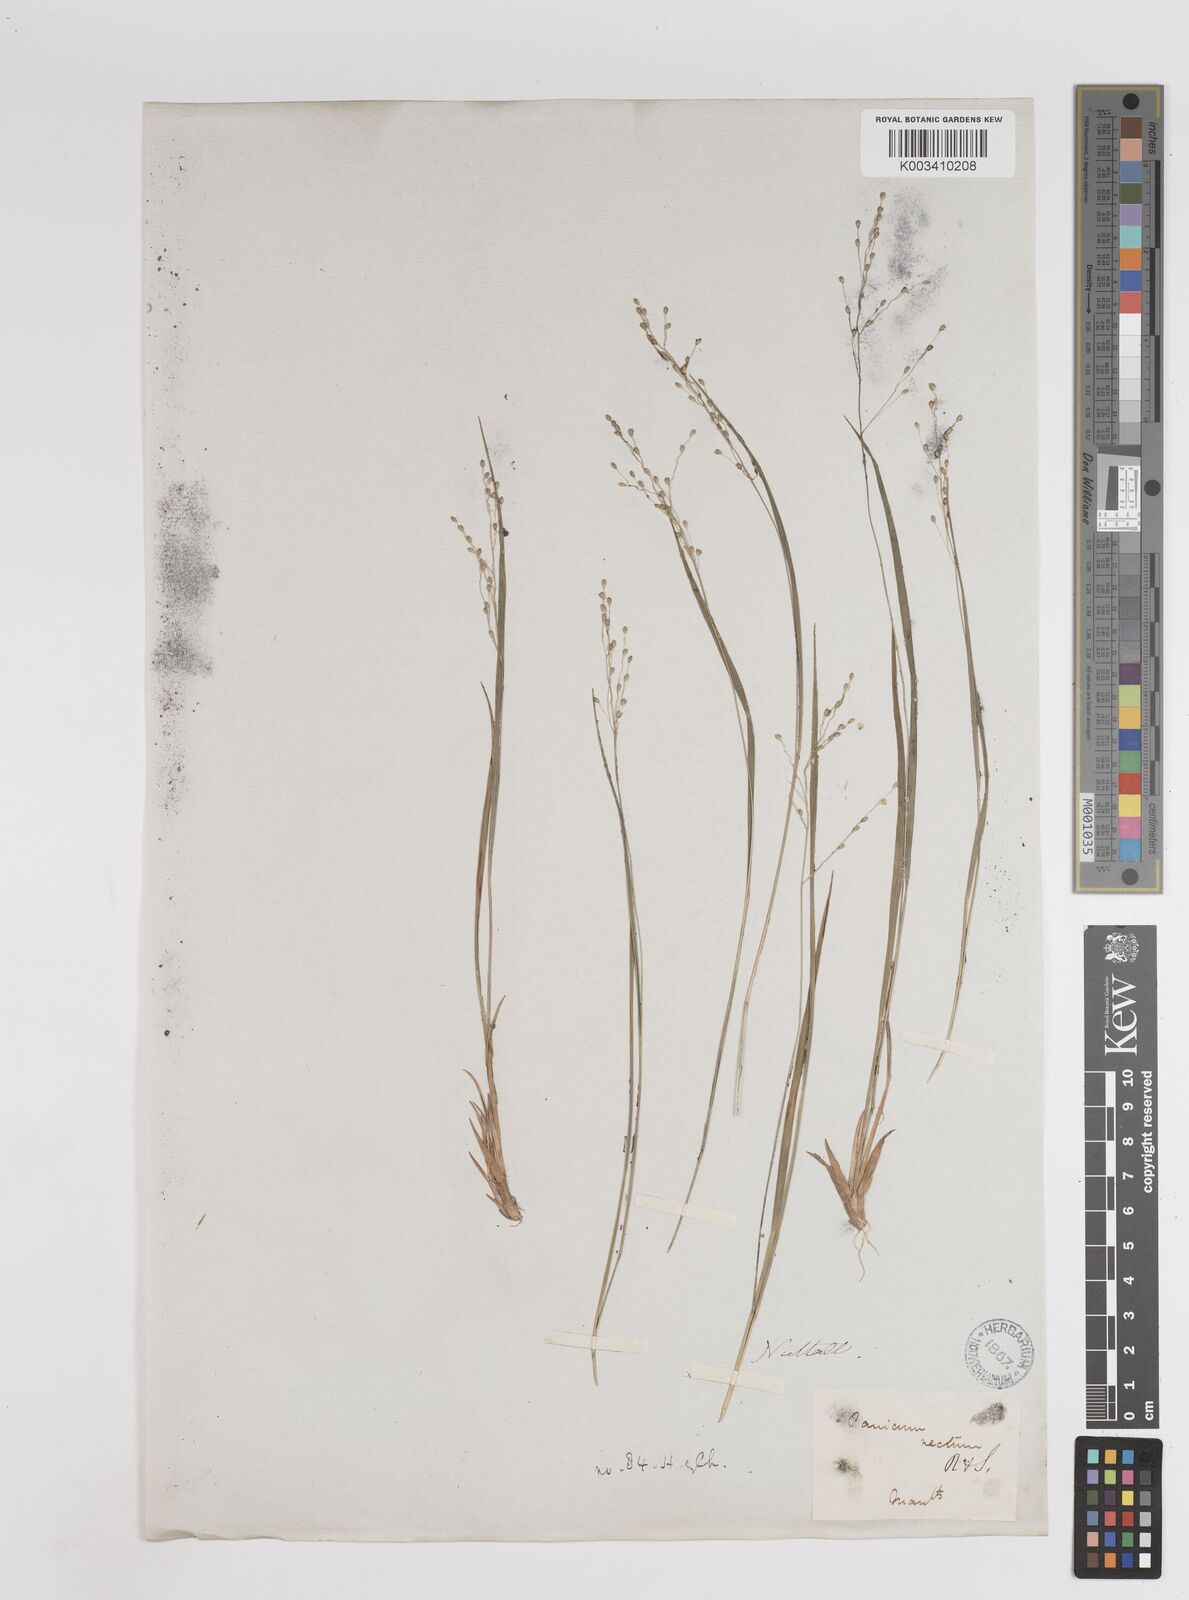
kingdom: Plantae
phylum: Tracheophyta
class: Liliopsida
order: Poales
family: Poaceae
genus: Dichanthelium
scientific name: Dichanthelium linearifolium
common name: Linear-leaved panicgrass
